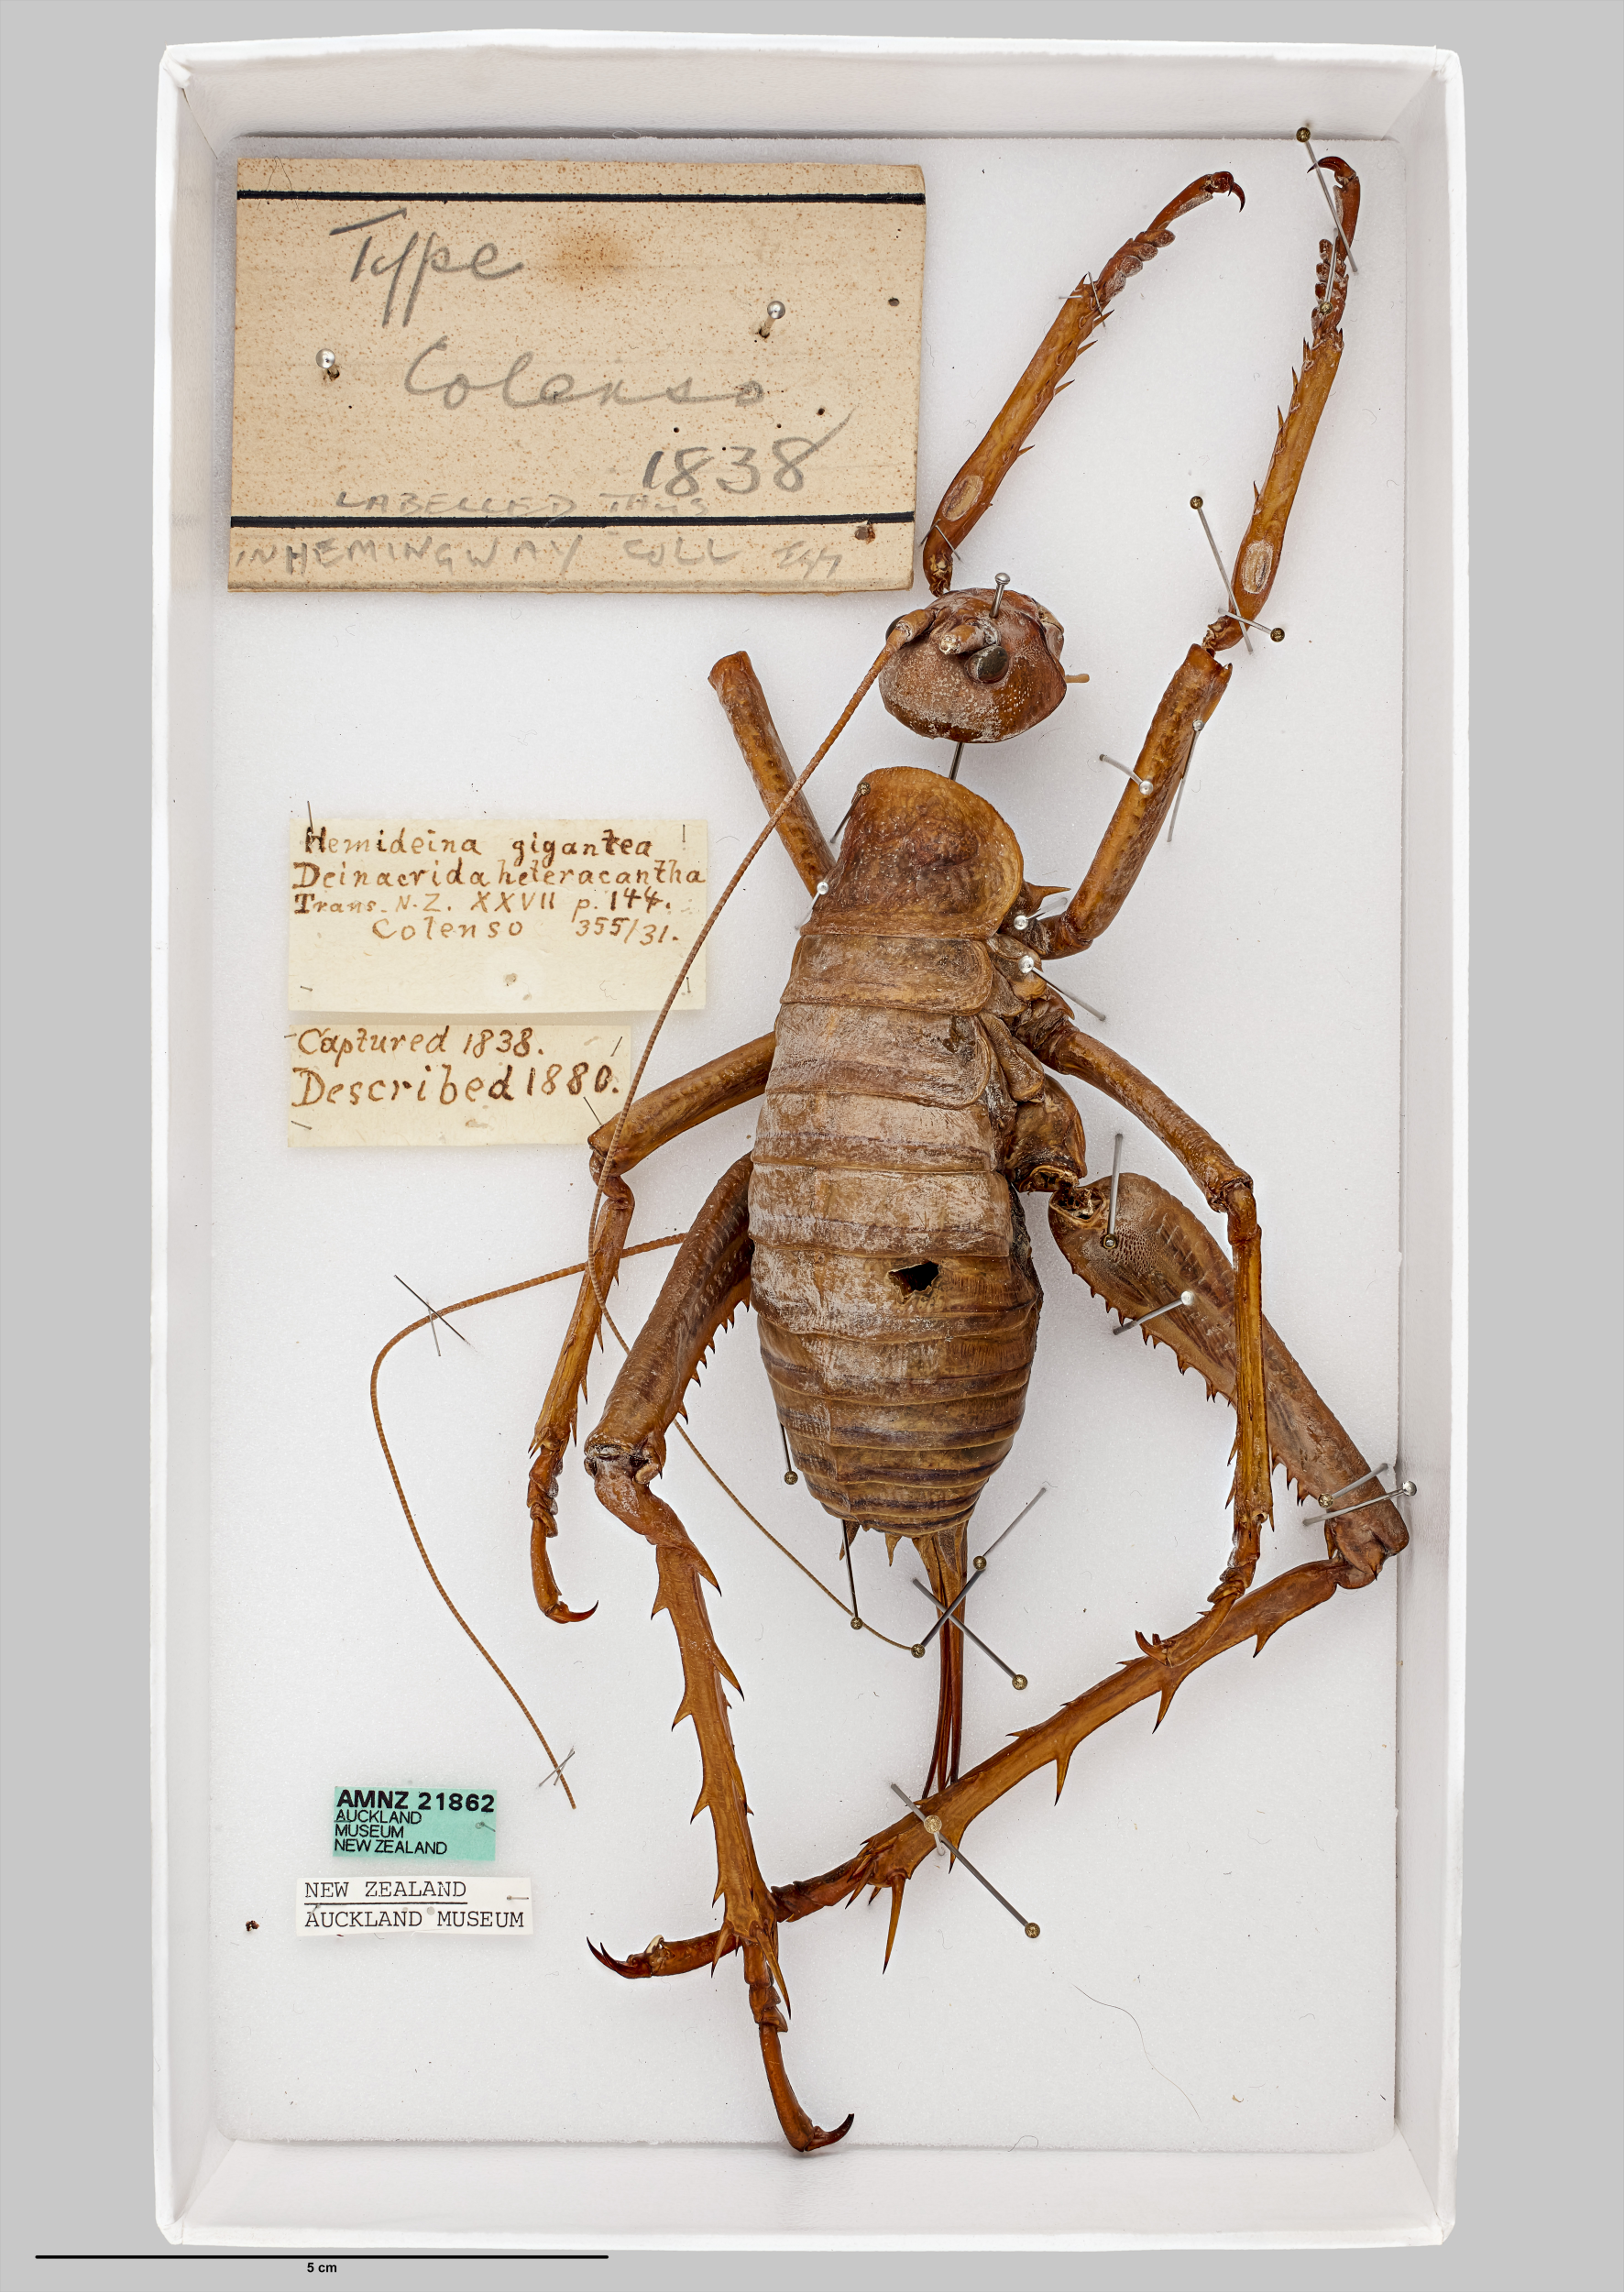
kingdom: Animalia
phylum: Arthropoda
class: Insecta
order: Orthoptera
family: Anostostomatidae
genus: Deinacrida
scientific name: Deinacrida heteracantha
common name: Wetapunga
